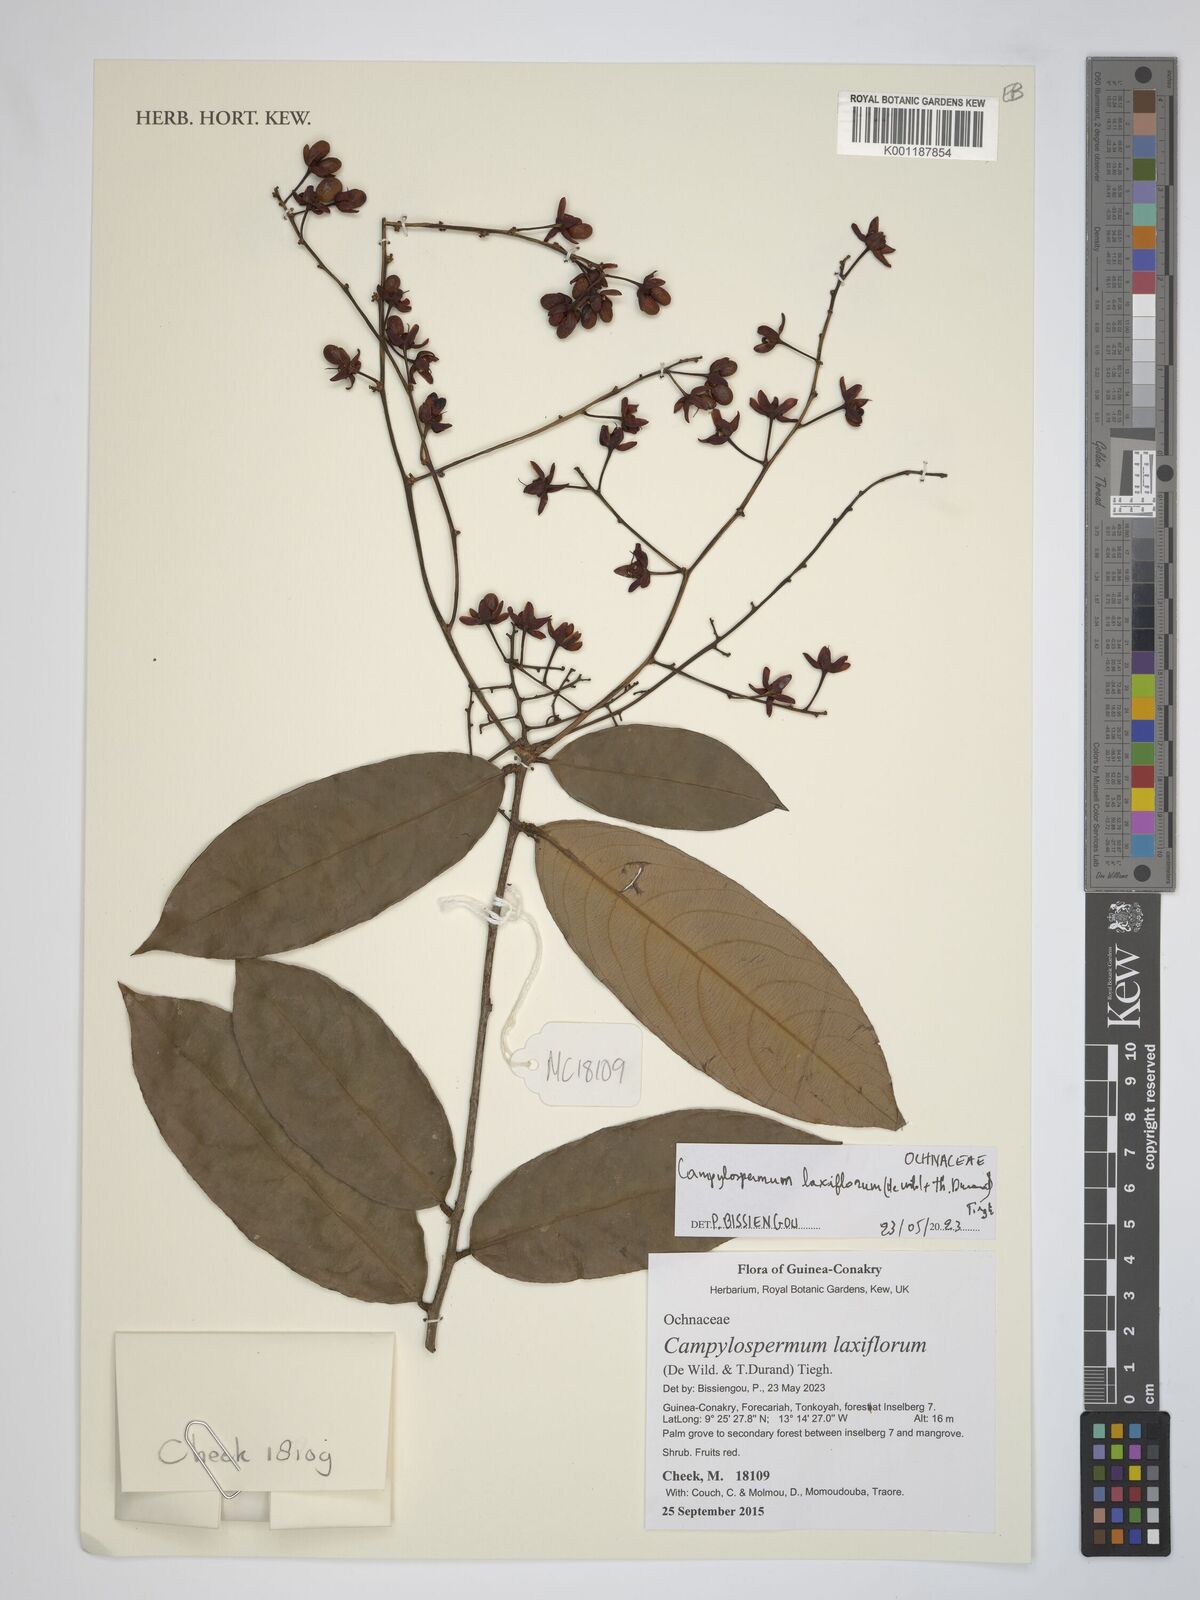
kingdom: Plantae
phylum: Tracheophyta
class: Magnoliopsida
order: Malpighiales
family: Ochnaceae
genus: Campylospermum
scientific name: Campylospermum laxiflorum
